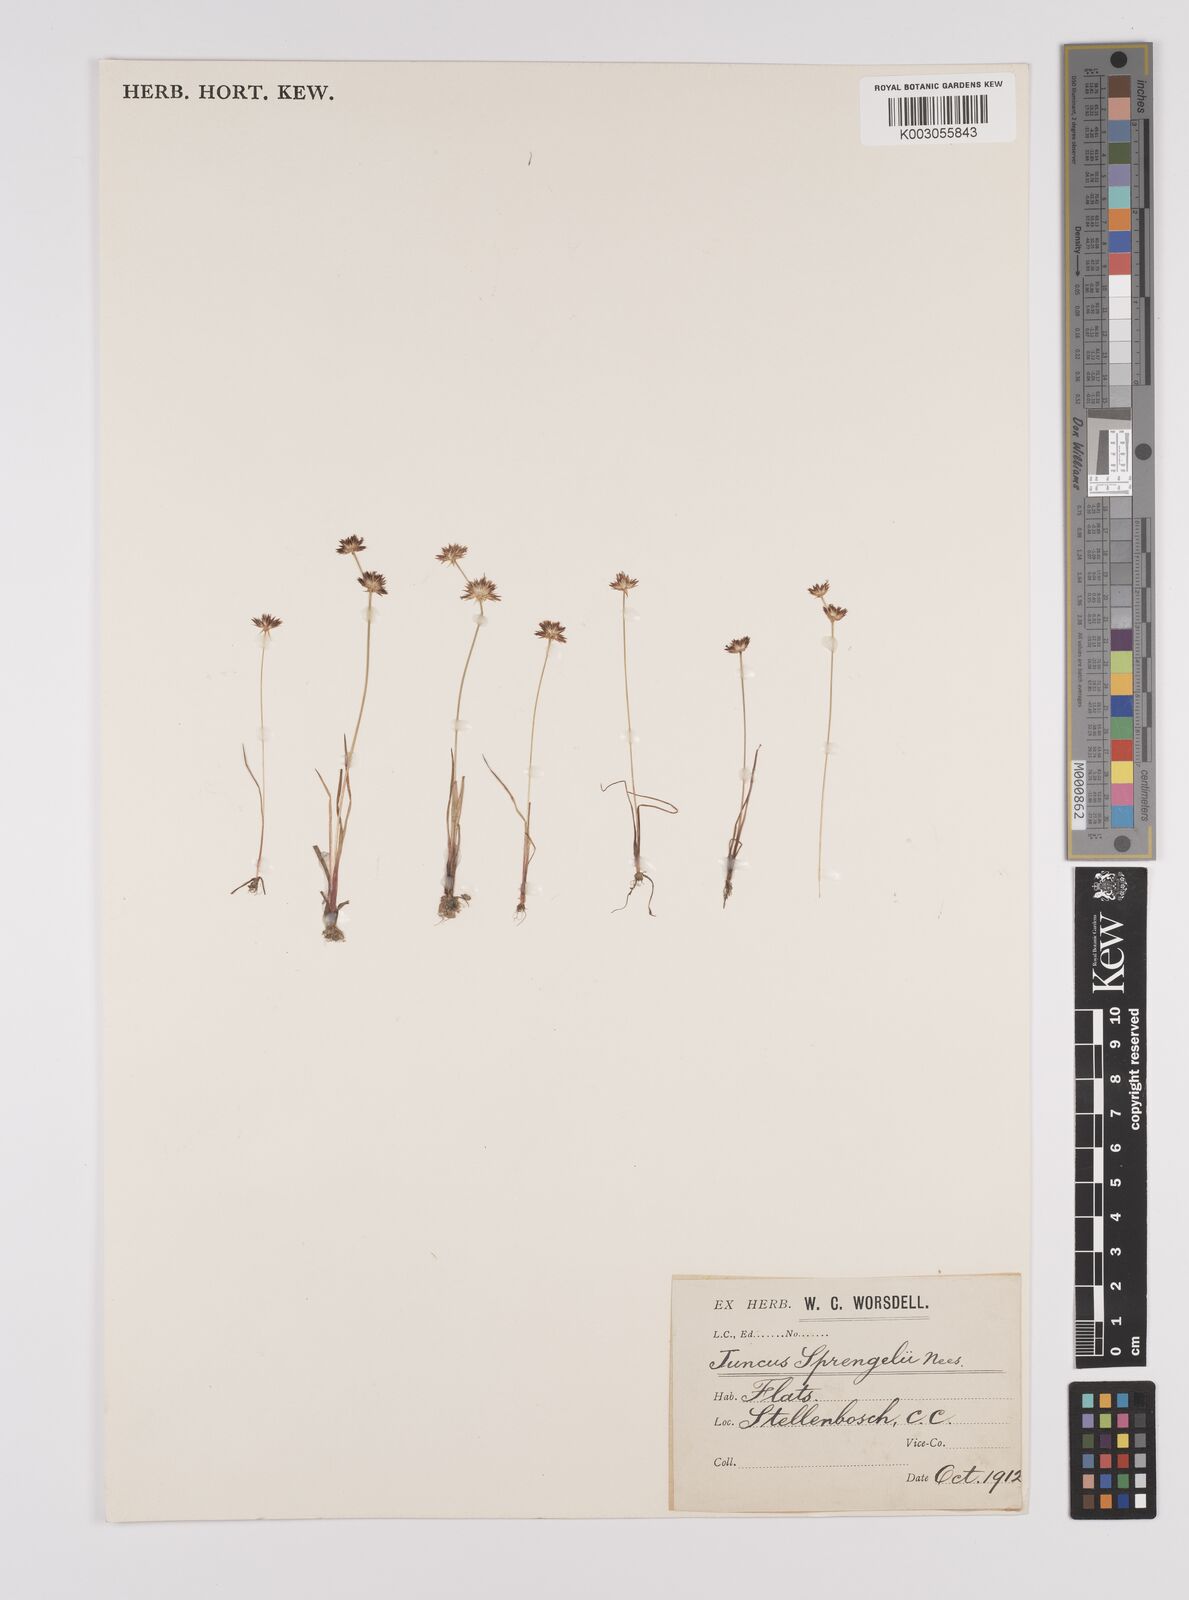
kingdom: Plantae
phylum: Tracheophyta
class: Liliopsida
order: Poales
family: Juncaceae
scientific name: Juncaceae
